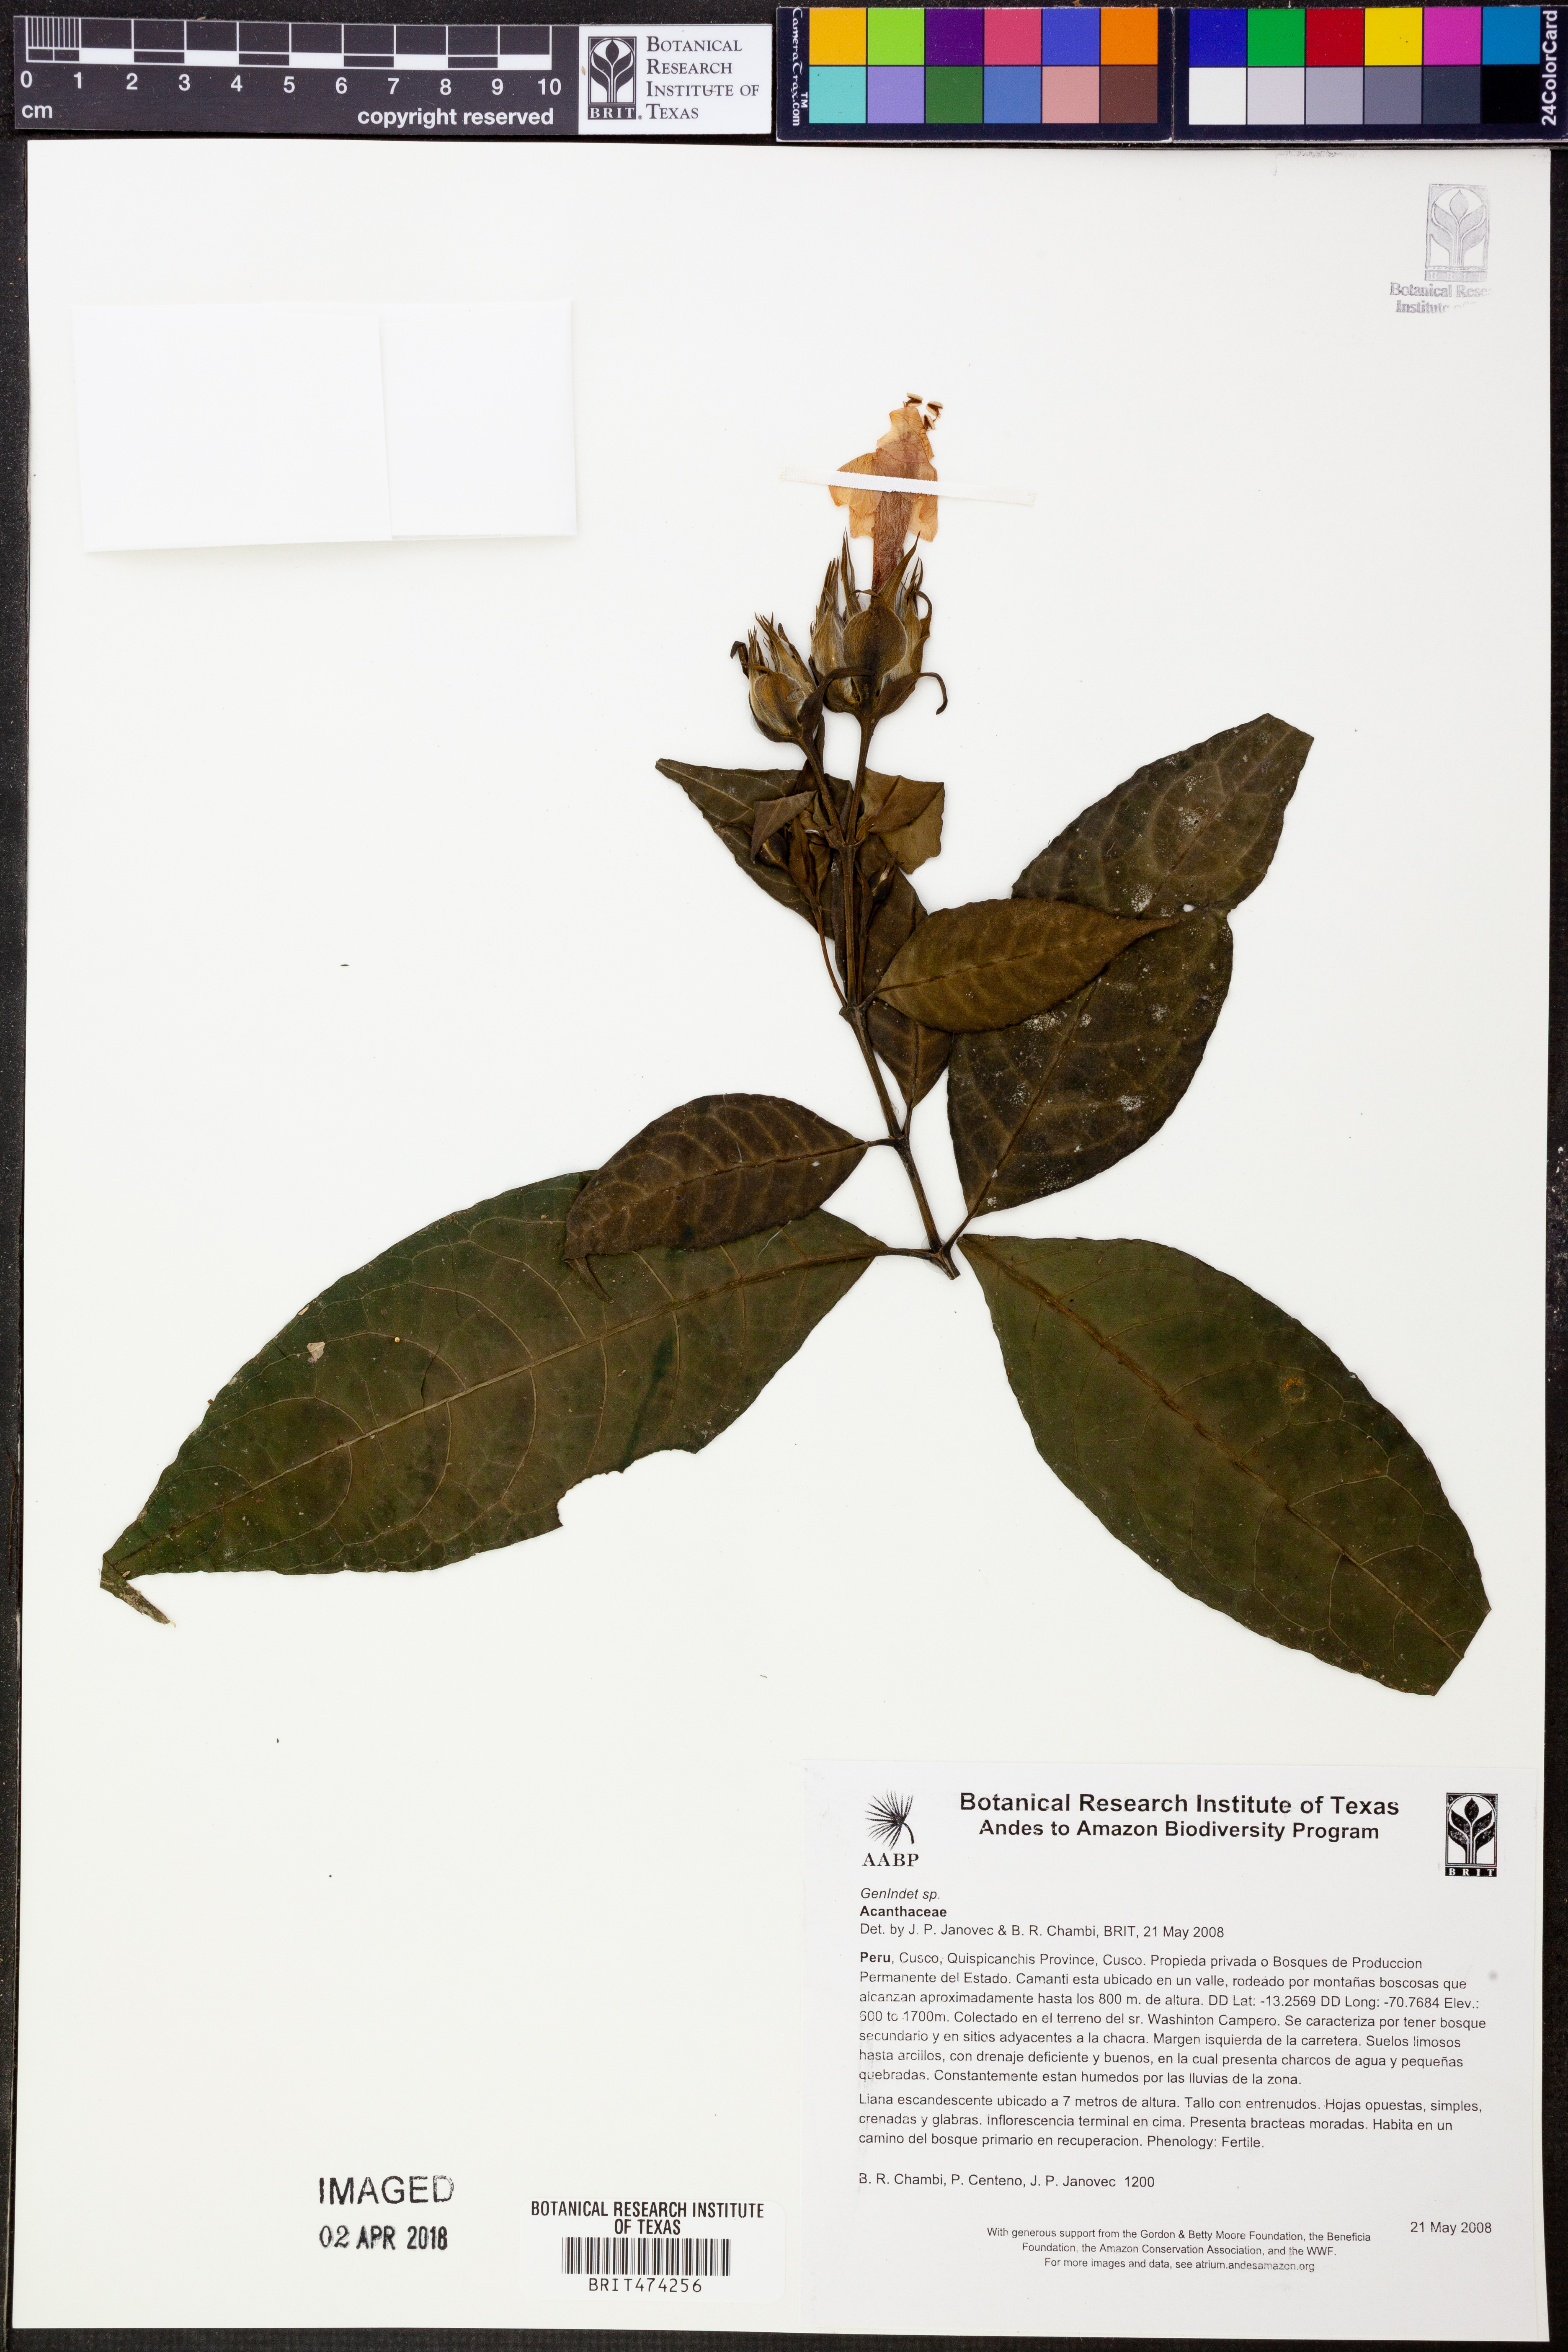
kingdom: Plantae
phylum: Tracheophyta
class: Magnoliopsida
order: Lamiales
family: Acanthaceae
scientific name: Acanthaceae
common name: Acanthaceae
